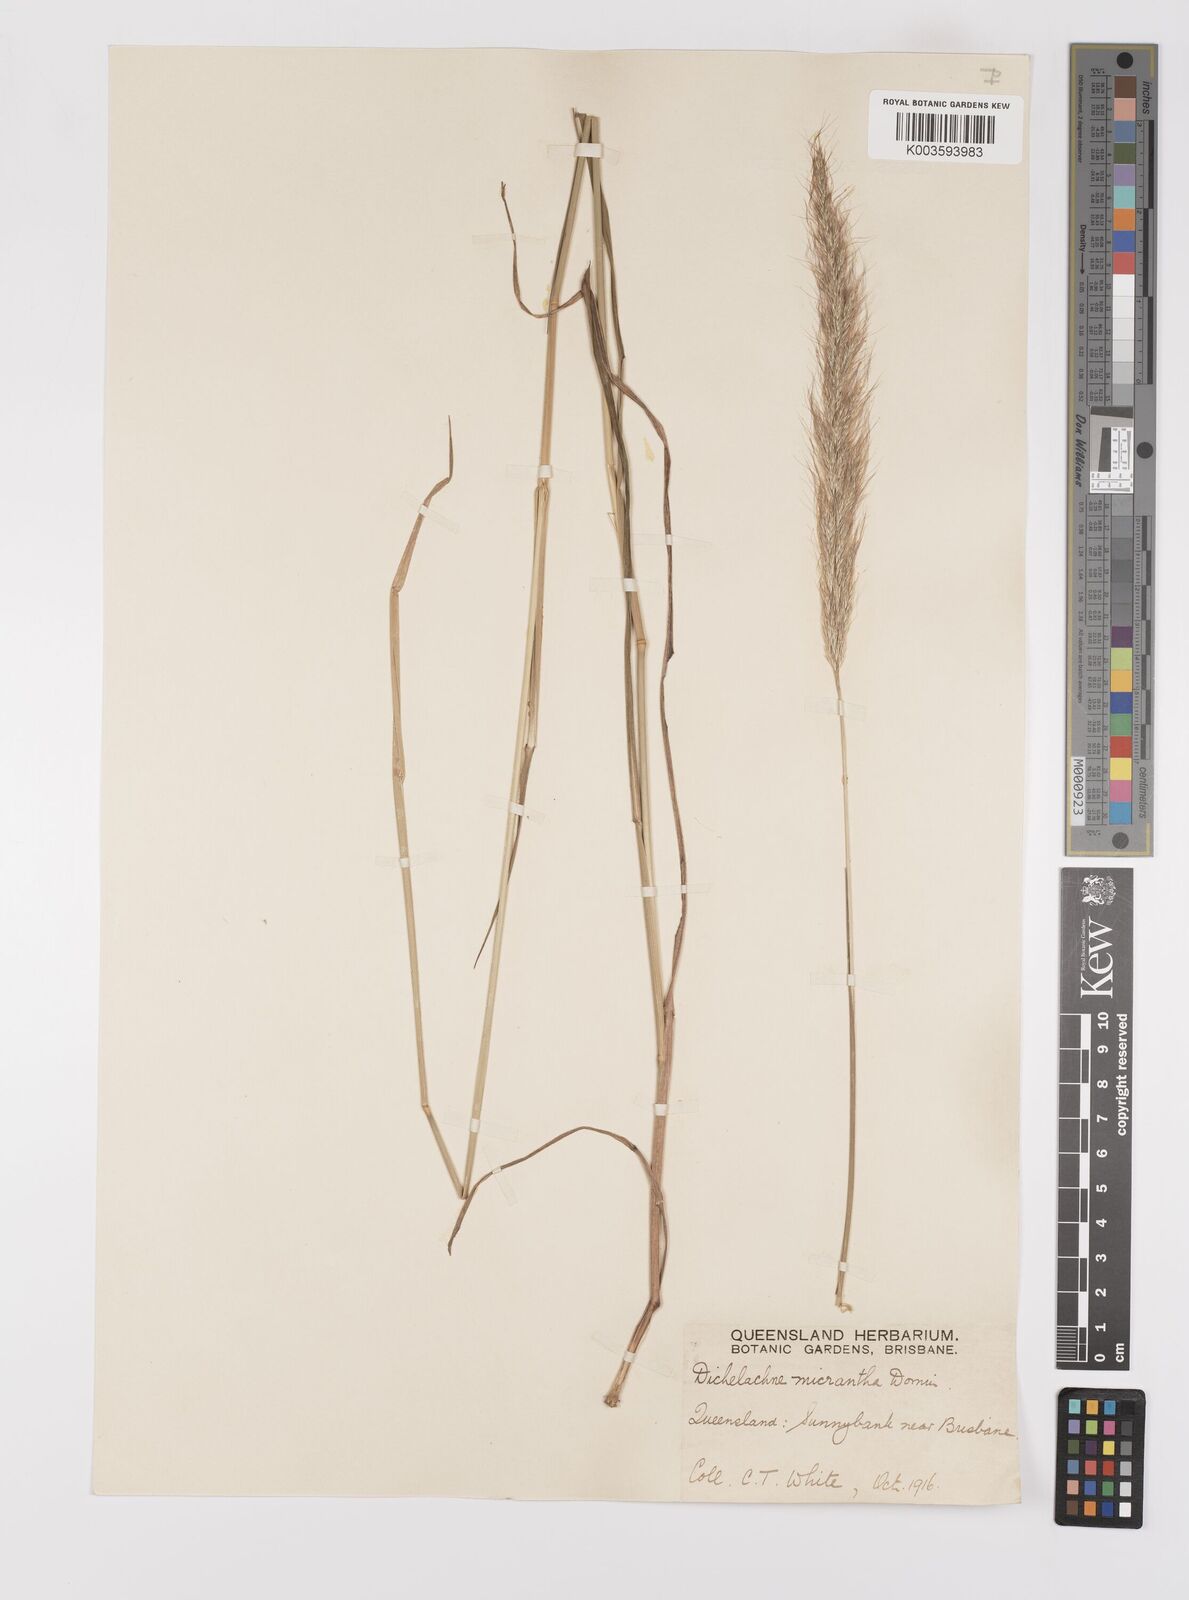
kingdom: Plantae
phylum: Tracheophyta
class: Liliopsida
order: Poales
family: Poaceae
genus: Dichelachne
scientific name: Dichelachne micrantha
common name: Plumegrass
